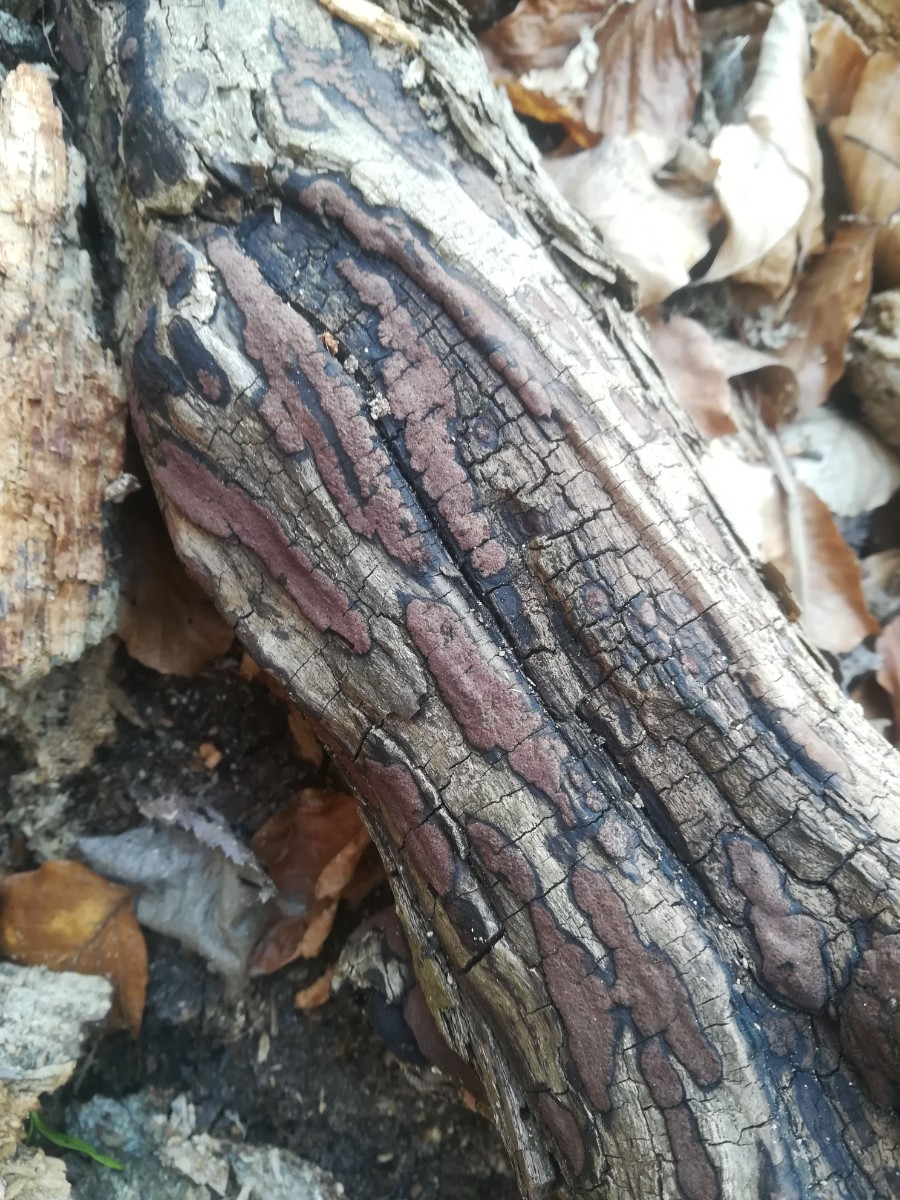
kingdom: Fungi
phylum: Ascomycota
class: Sordariomycetes
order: Xylariales
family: Hypoxylaceae
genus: Hypoxylon
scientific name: Hypoxylon petriniae
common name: nedsænket kulbær
